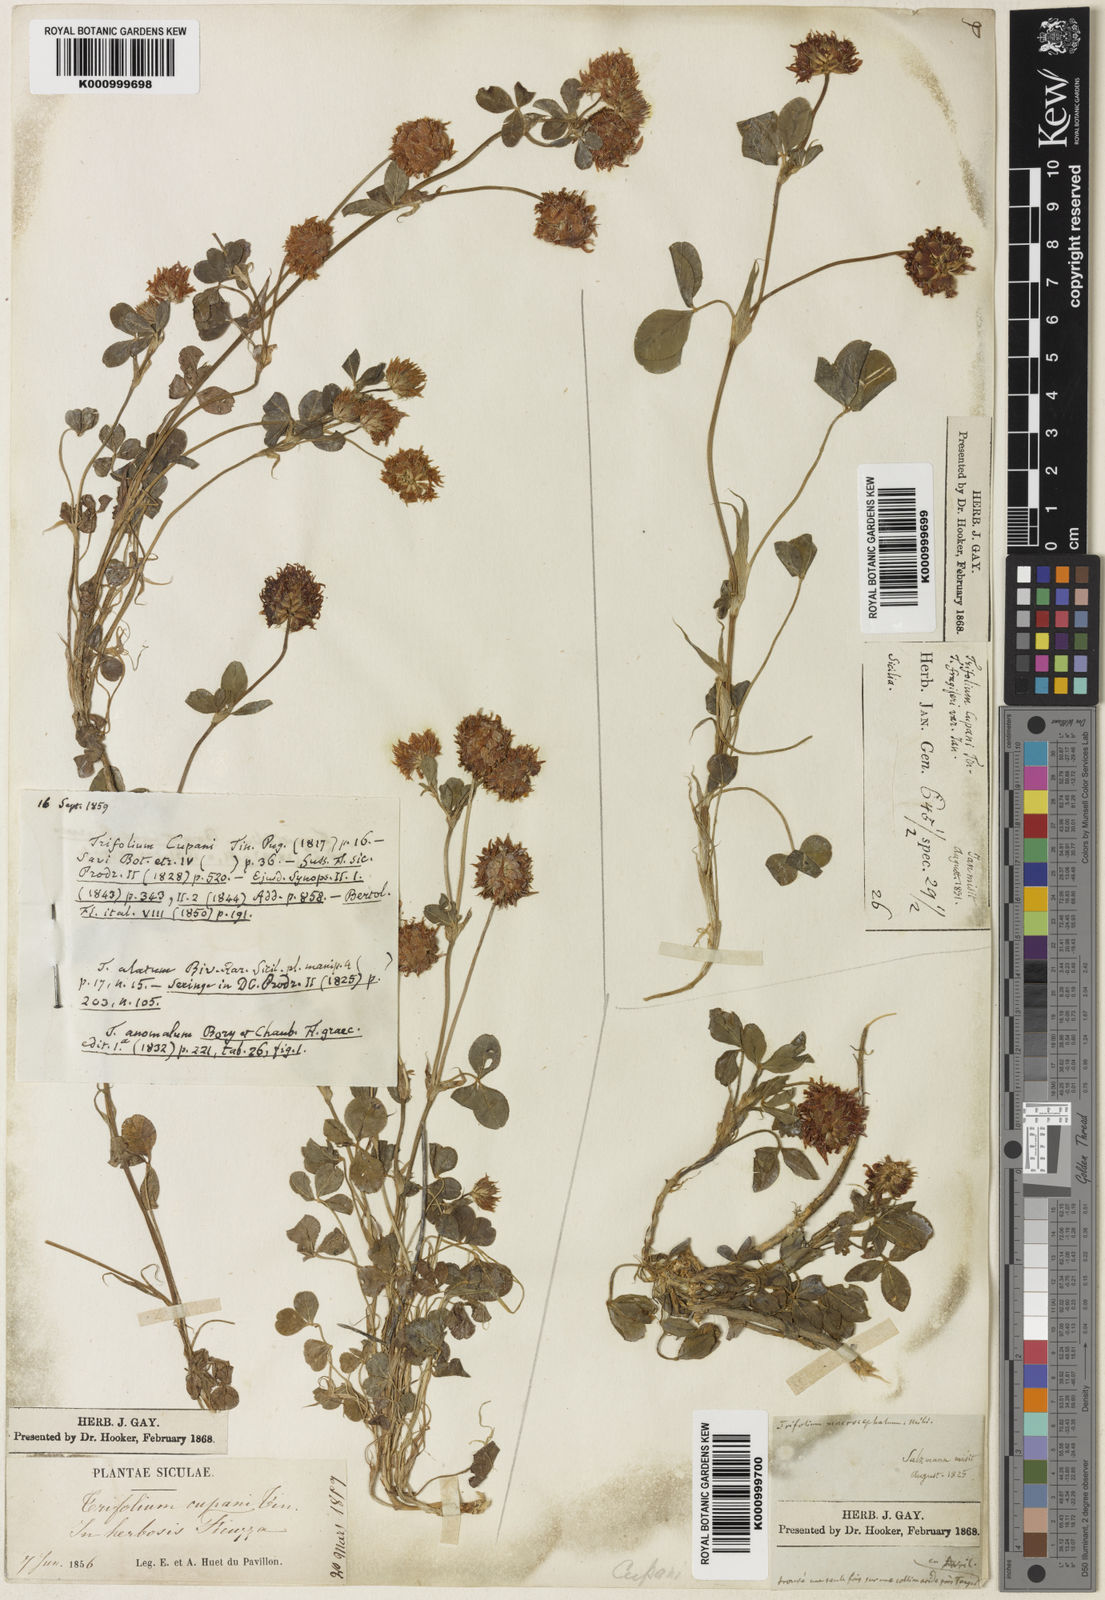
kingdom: Plantae
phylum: Tracheophyta
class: Magnoliopsida
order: Fabales
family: Fabaceae
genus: Trifolium
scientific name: Trifolium physodes
